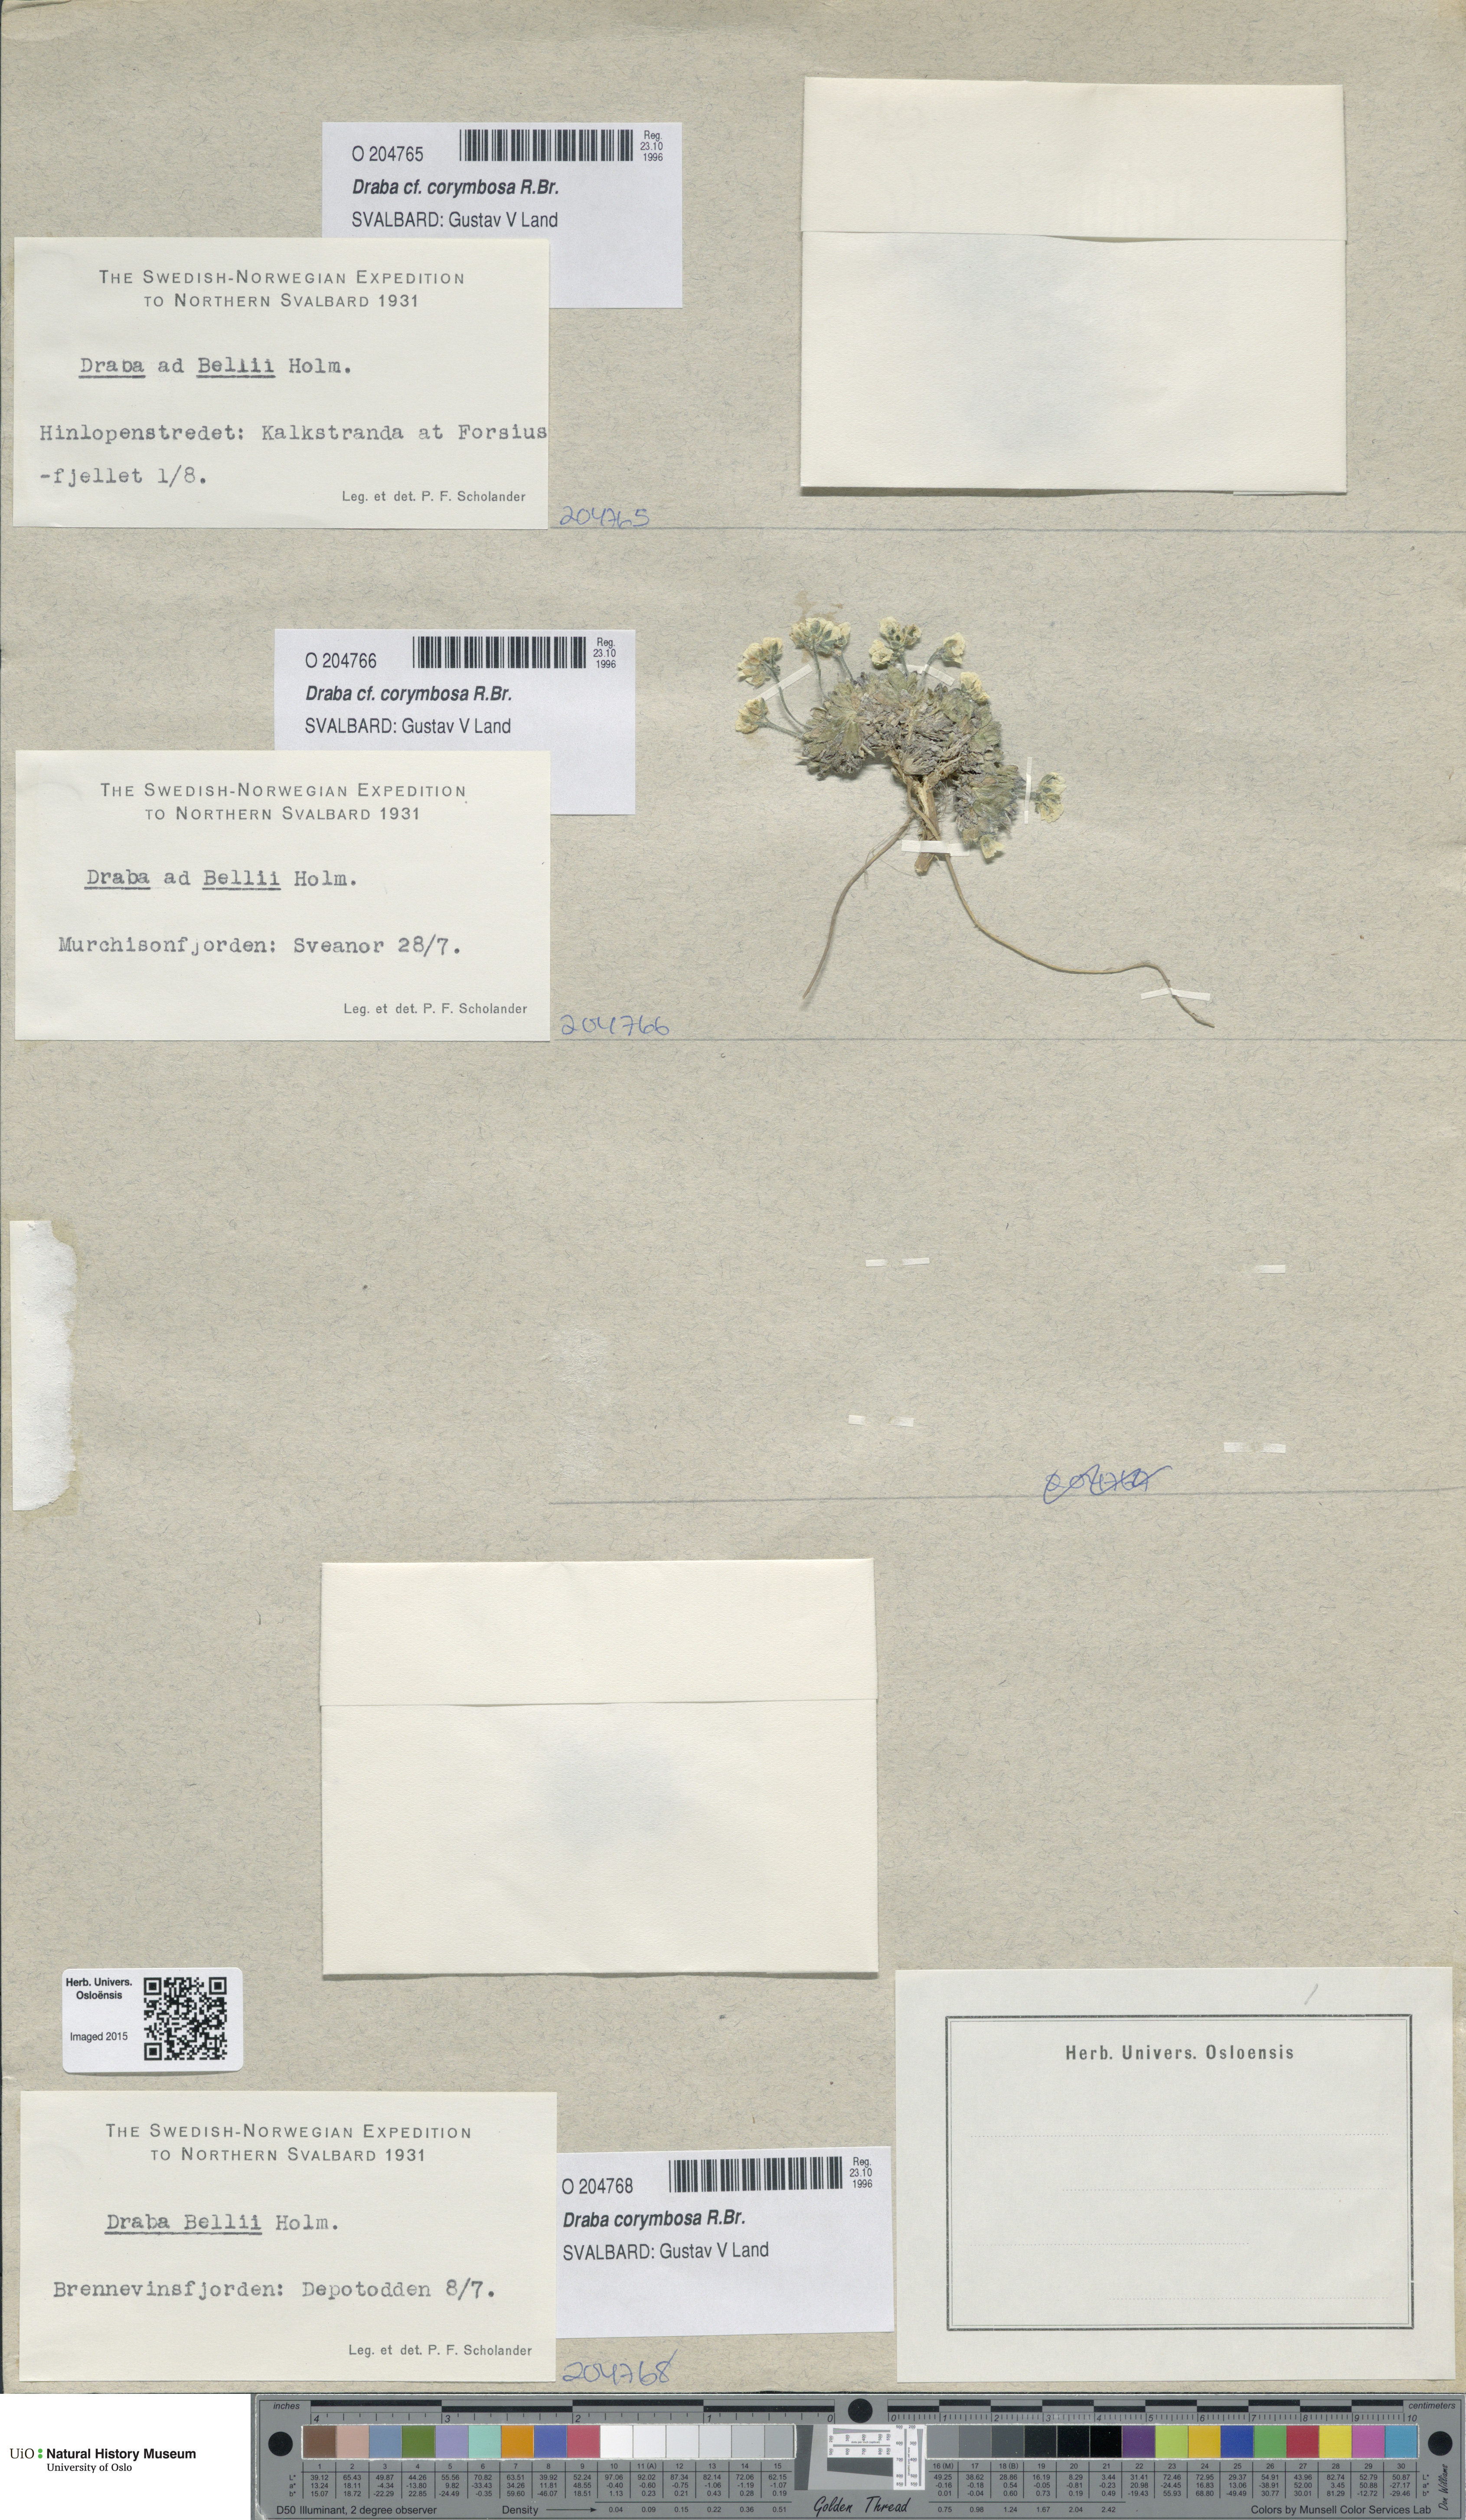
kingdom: Plantae
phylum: Tracheophyta
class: Magnoliopsida
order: Brassicales
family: Brassicaceae
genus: Draba
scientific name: Draba corymbosa
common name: Cushion whitlow-grass
